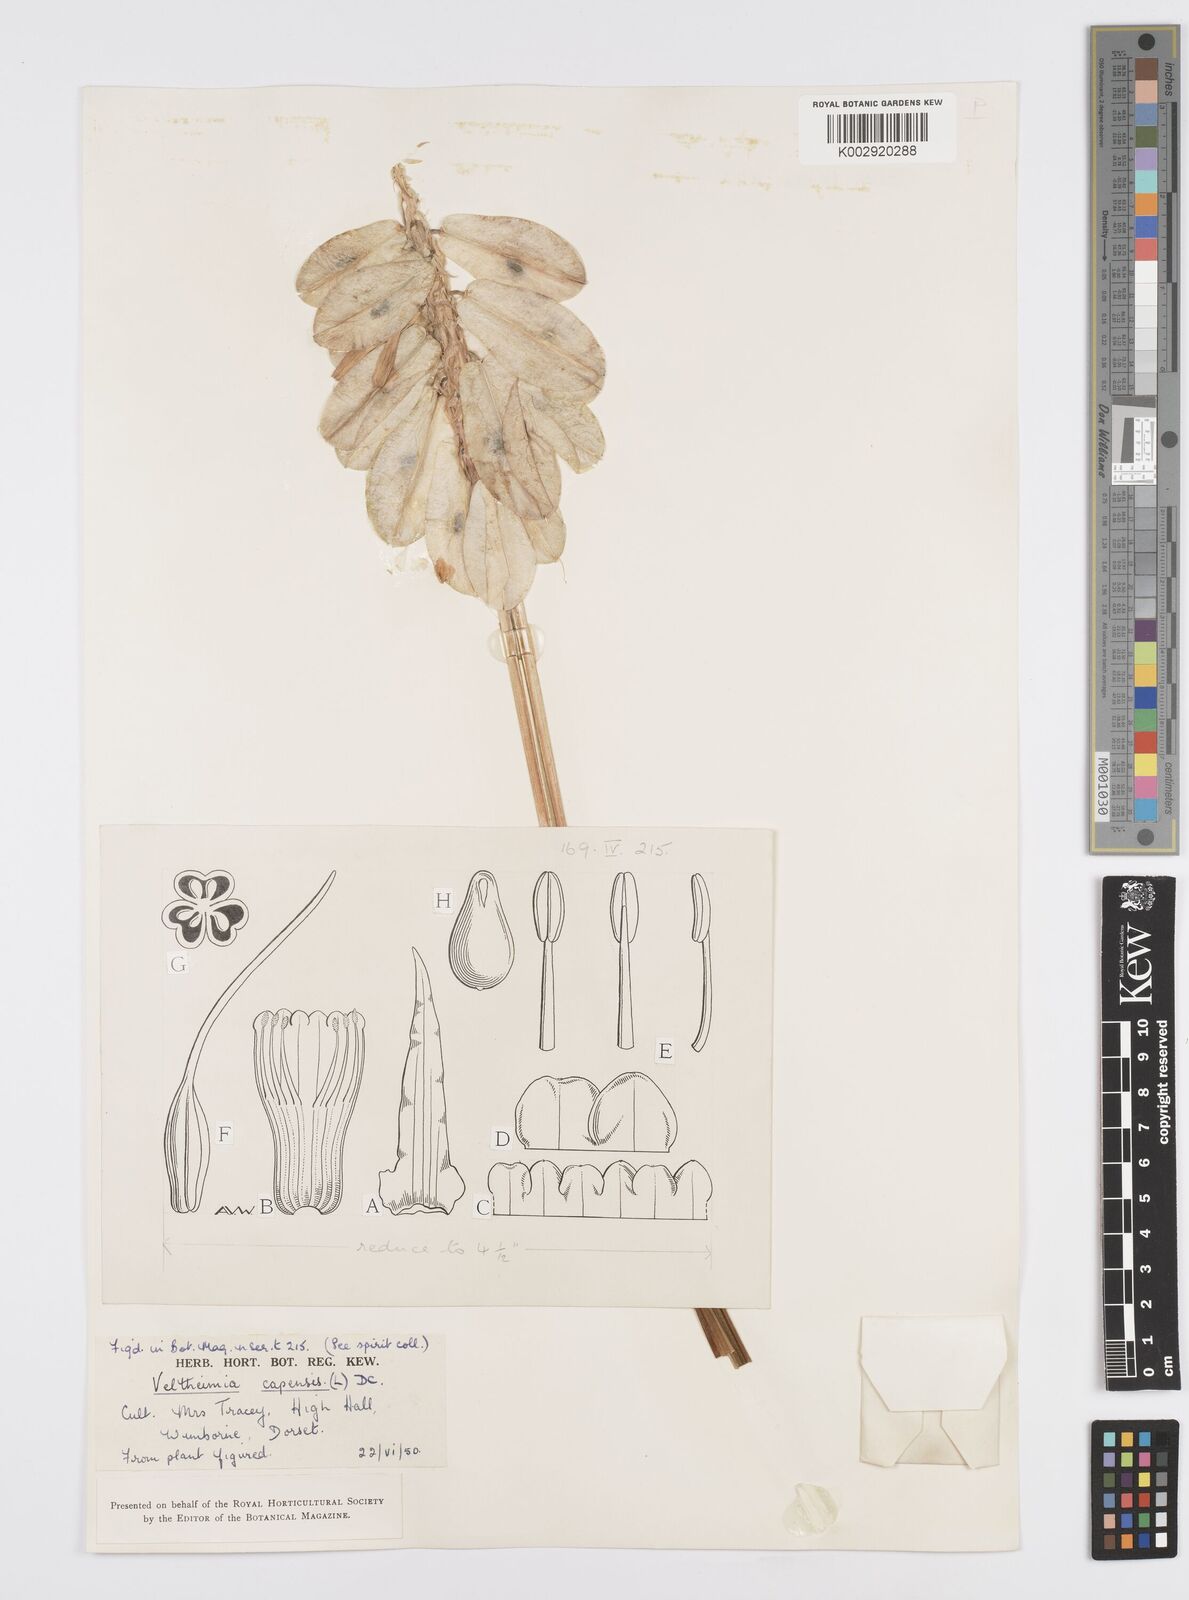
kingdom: Plantae
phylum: Tracheophyta
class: Liliopsida
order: Asparagales
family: Asparagaceae
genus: Veltheimia
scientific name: Veltheimia bracteata
